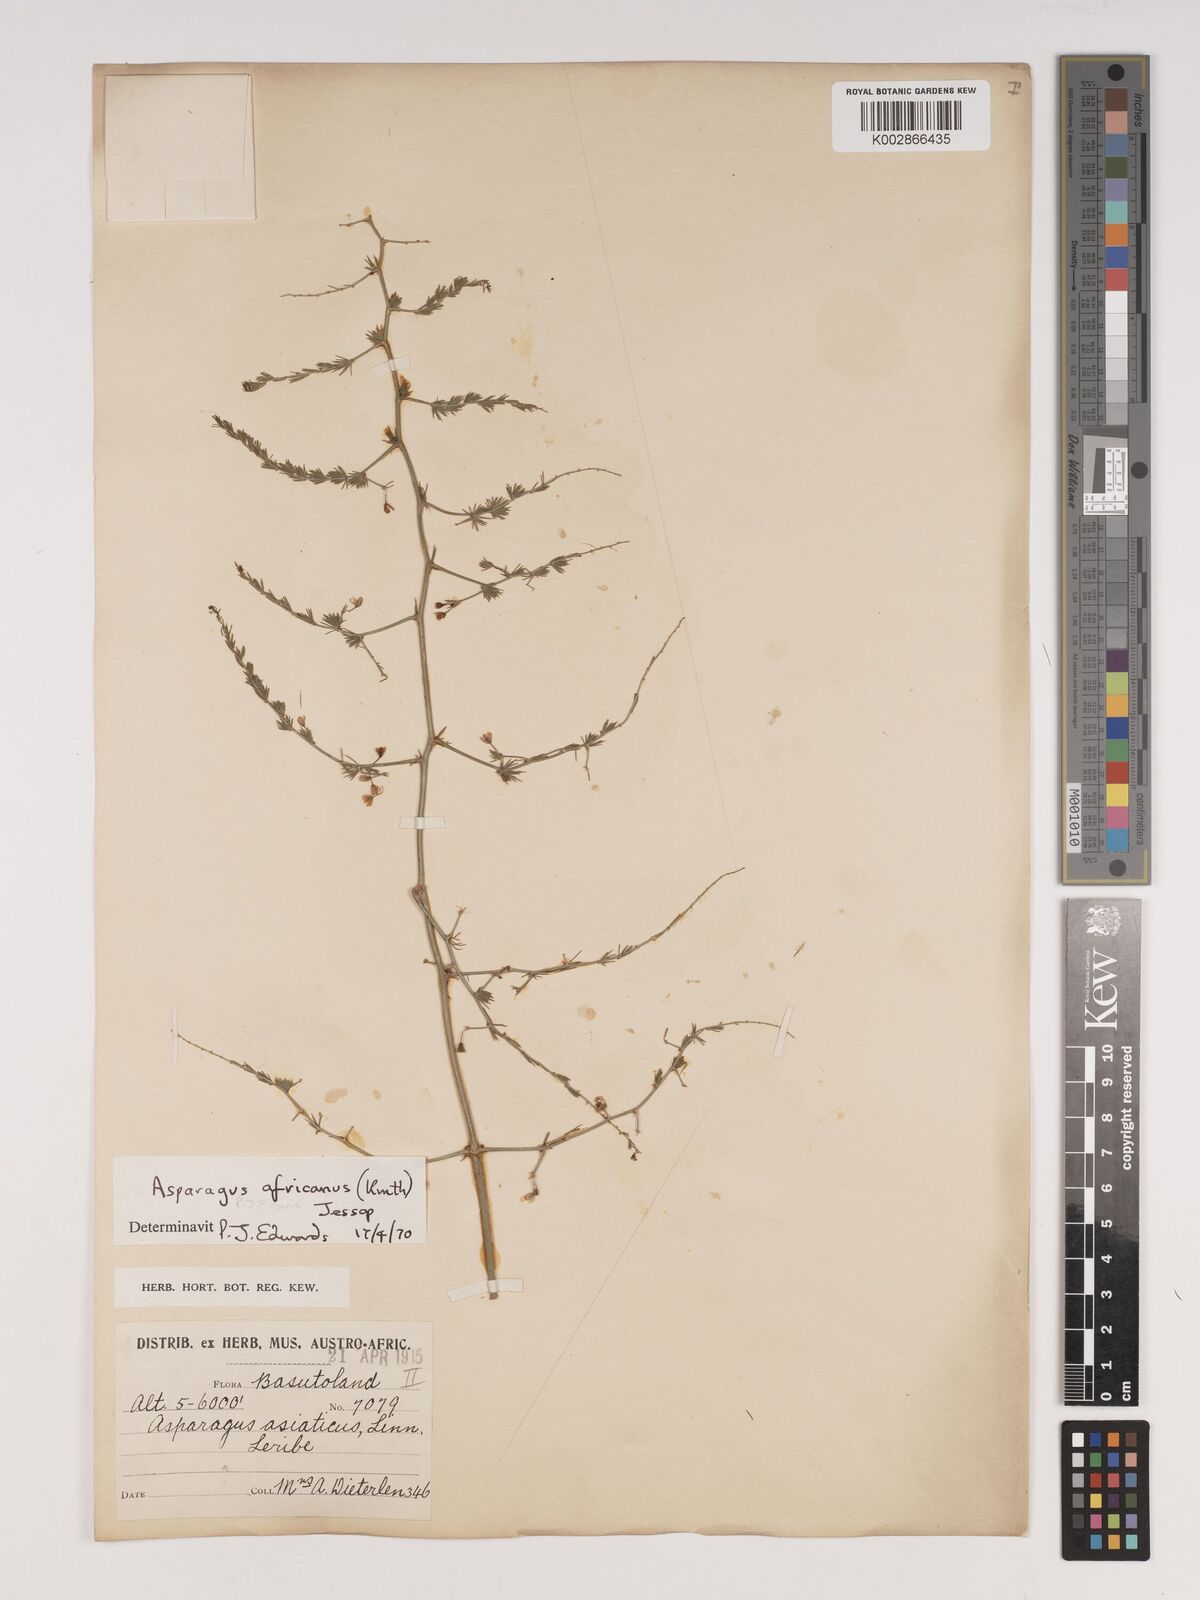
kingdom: Plantae
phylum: Tracheophyta
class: Liliopsida
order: Asparagales
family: Asparagaceae
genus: Asparagus
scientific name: Asparagus africanus
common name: Asparagus-fern
